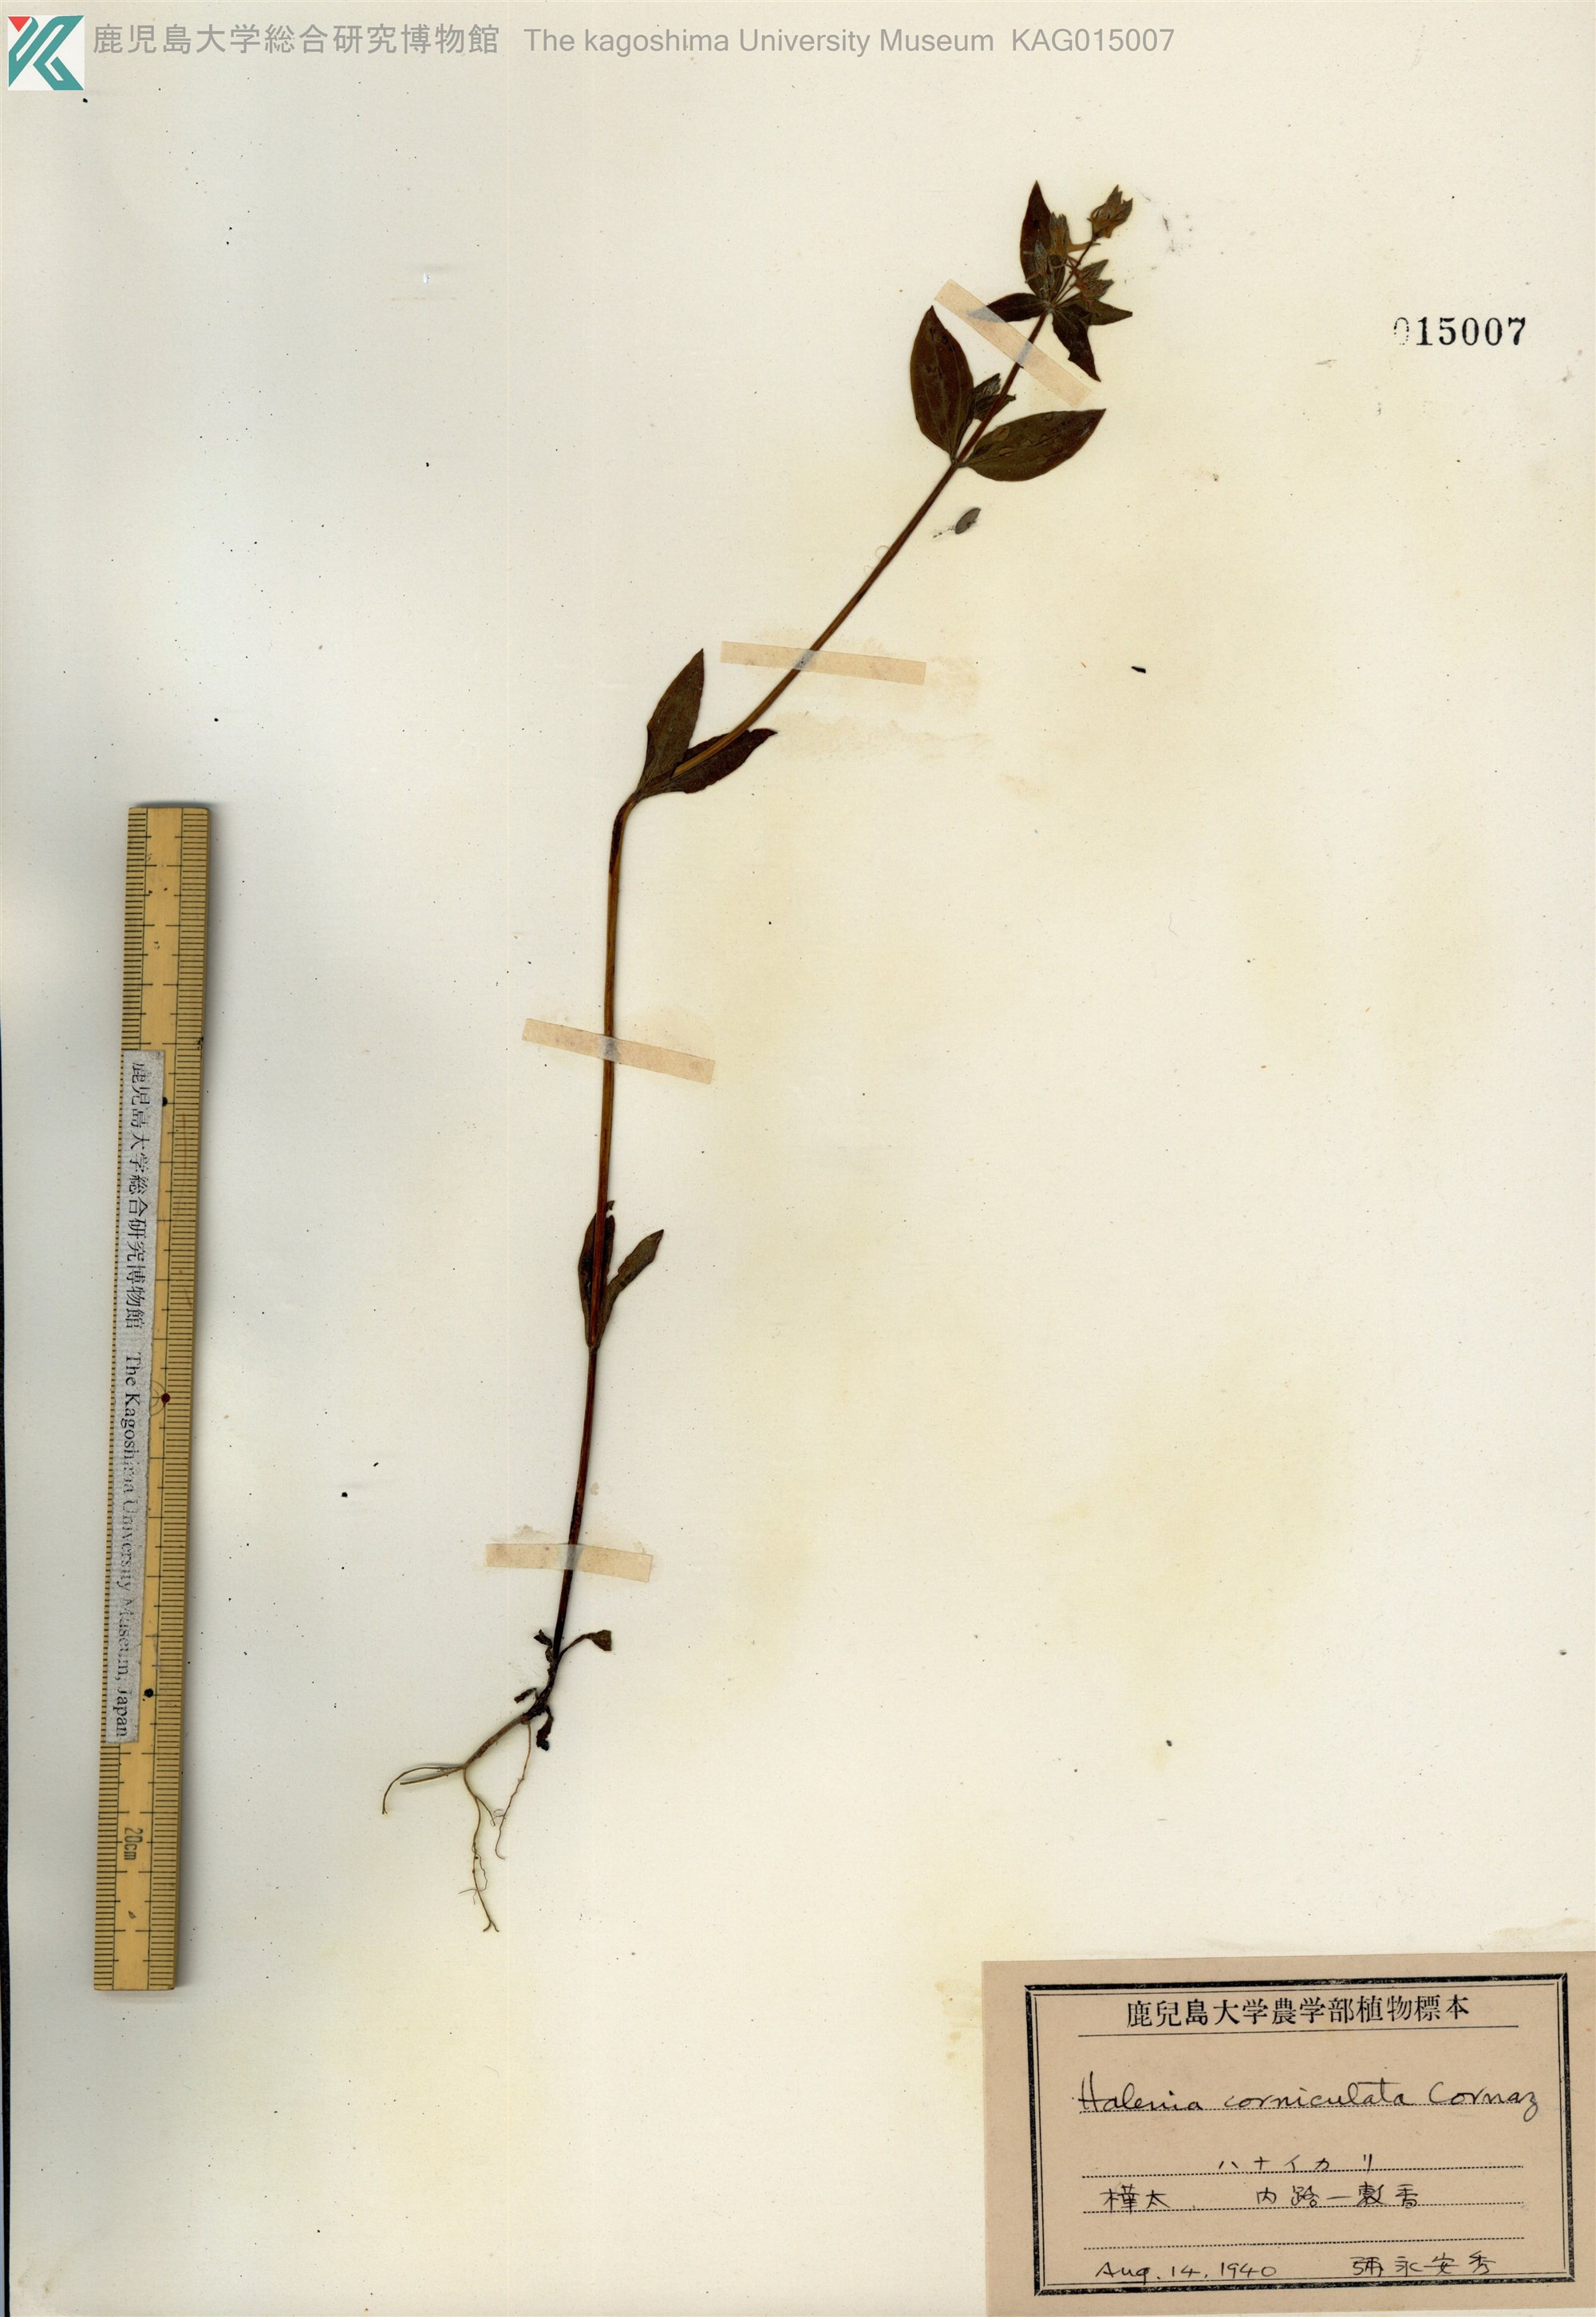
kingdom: Plantae
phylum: Tracheophyta
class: Magnoliopsida
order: Gentianales
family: Gentianaceae
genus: Halenia
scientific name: Halenia corniculata
